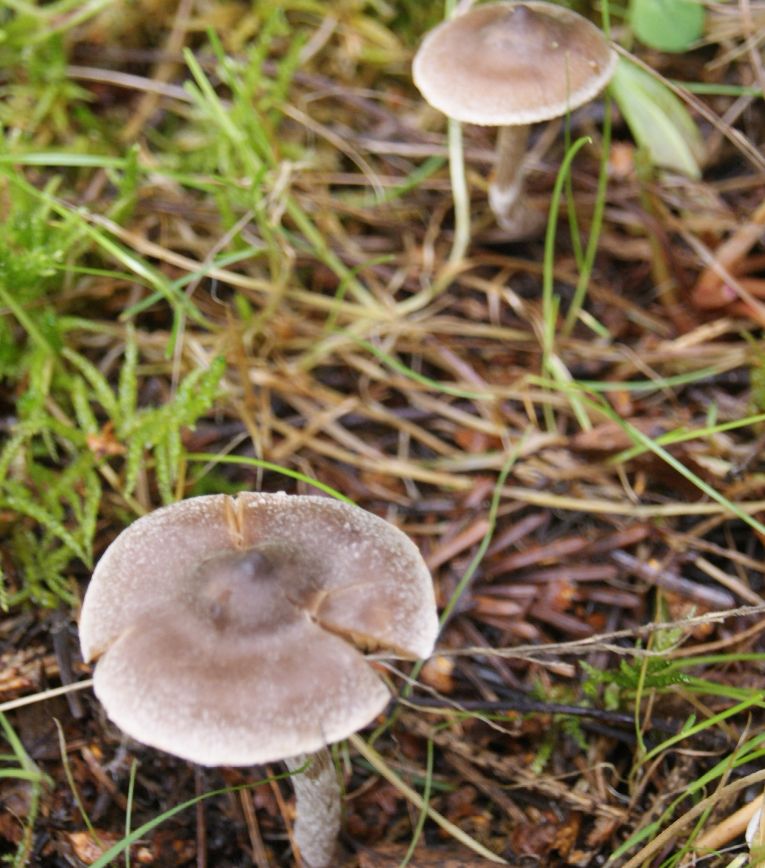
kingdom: Fungi
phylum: Basidiomycota
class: Agaricomycetes
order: Agaricales
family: Cortinariaceae
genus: Cortinarius
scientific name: Cortinarius hemitrichus
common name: hvidfnugget slørhat
